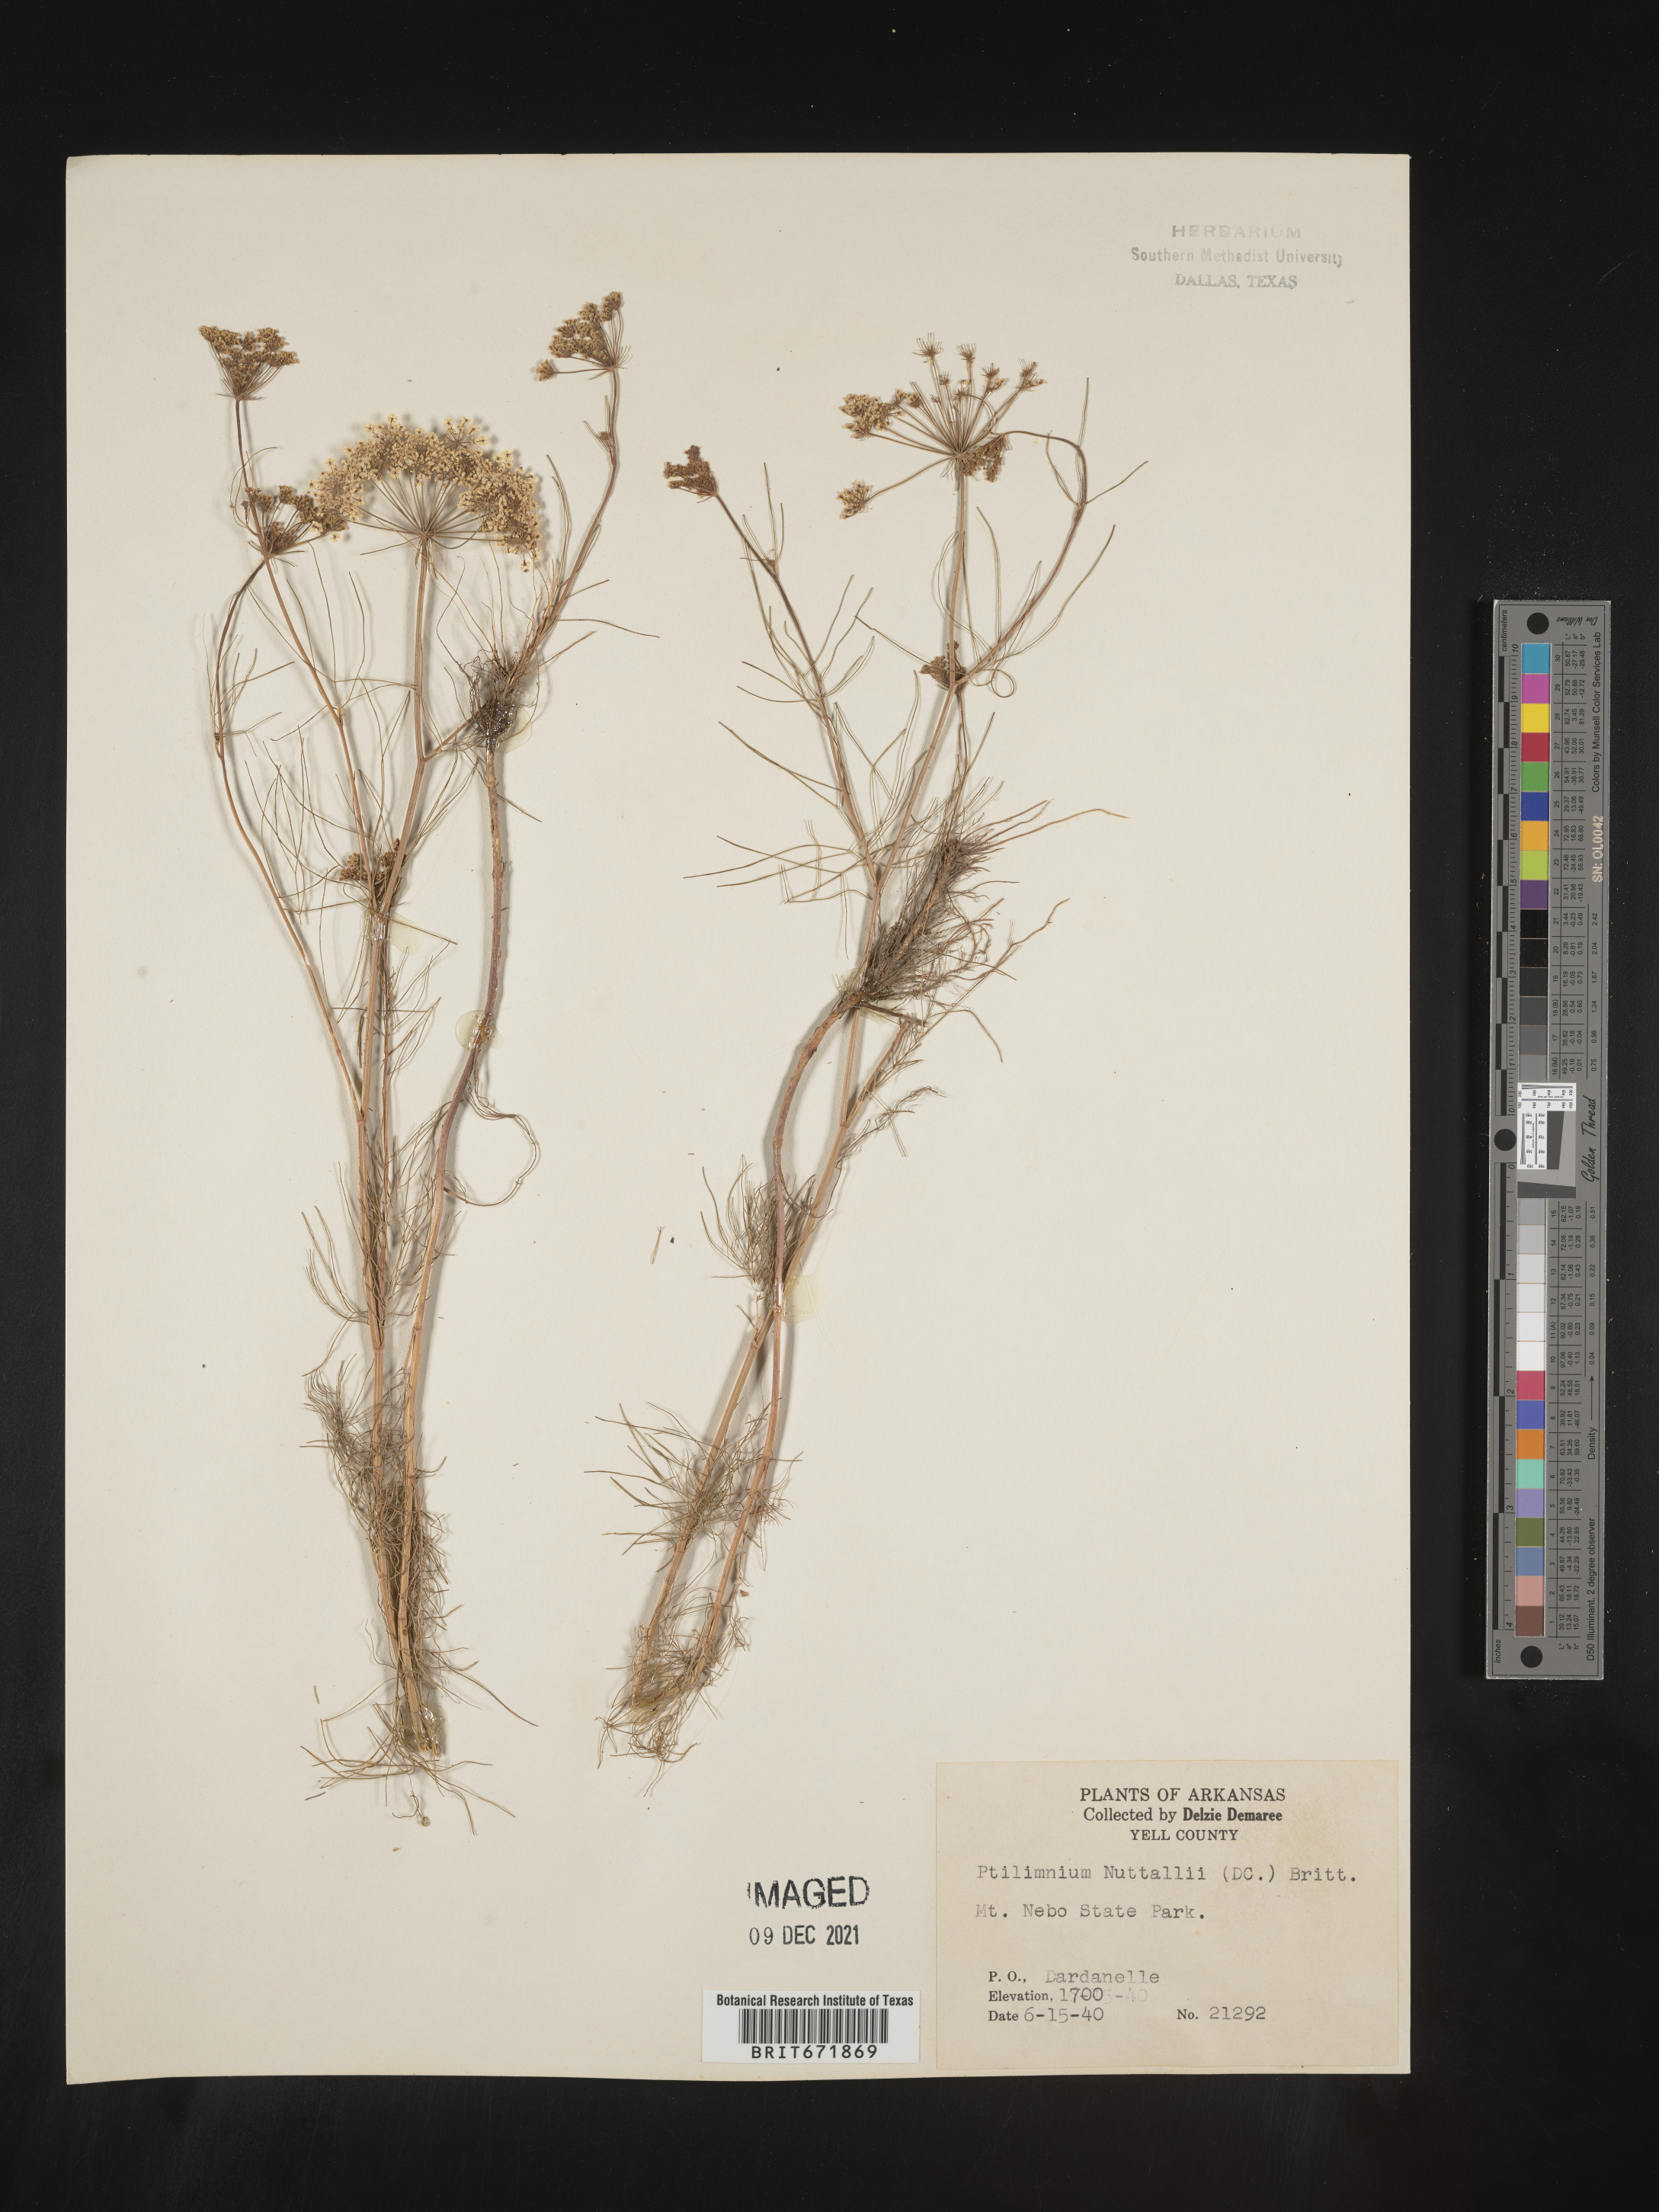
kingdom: Plantae
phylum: Tracheophyta
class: Magnoliopsida
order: Apiales
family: Apiaceae
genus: Ptilimnium
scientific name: Ptilimnium nuttallii
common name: Ozark bishop's-weed
